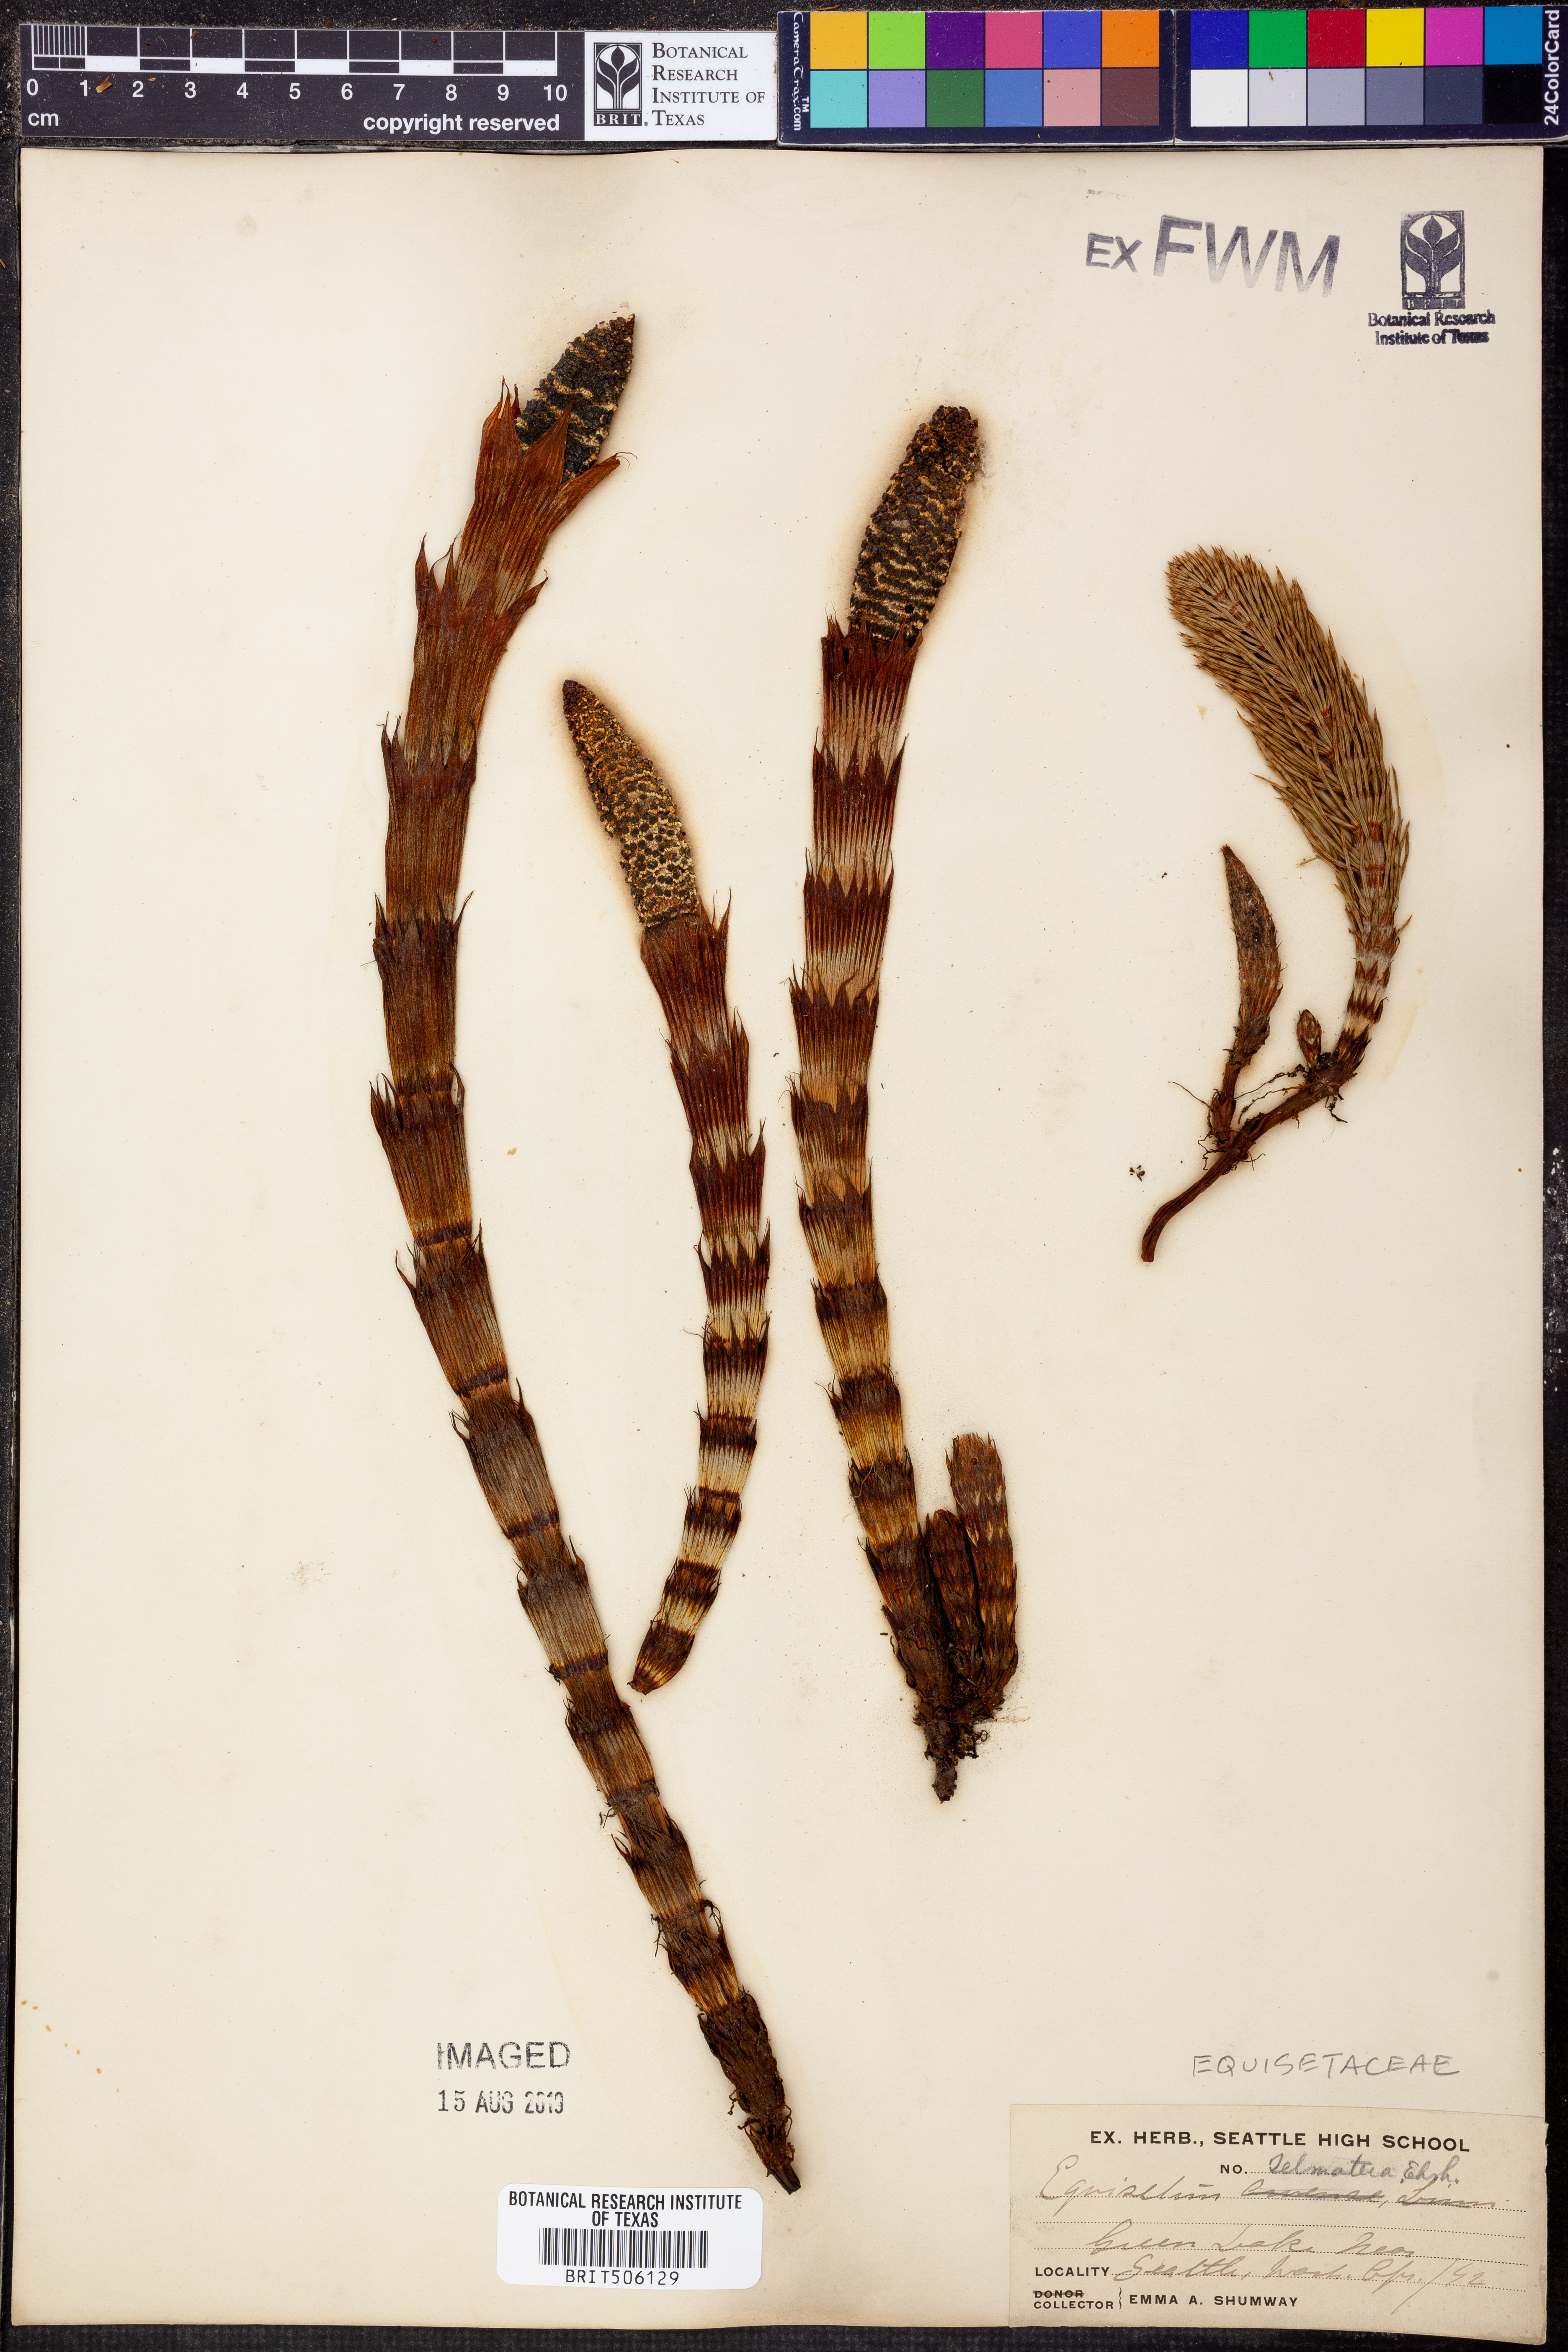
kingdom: Plantae
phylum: Tracheophyta
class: Polypodiopsida
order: Equisetales
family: Equisetaceae
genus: Equisetum
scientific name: Equisetum telmateia
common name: Great horsetail
